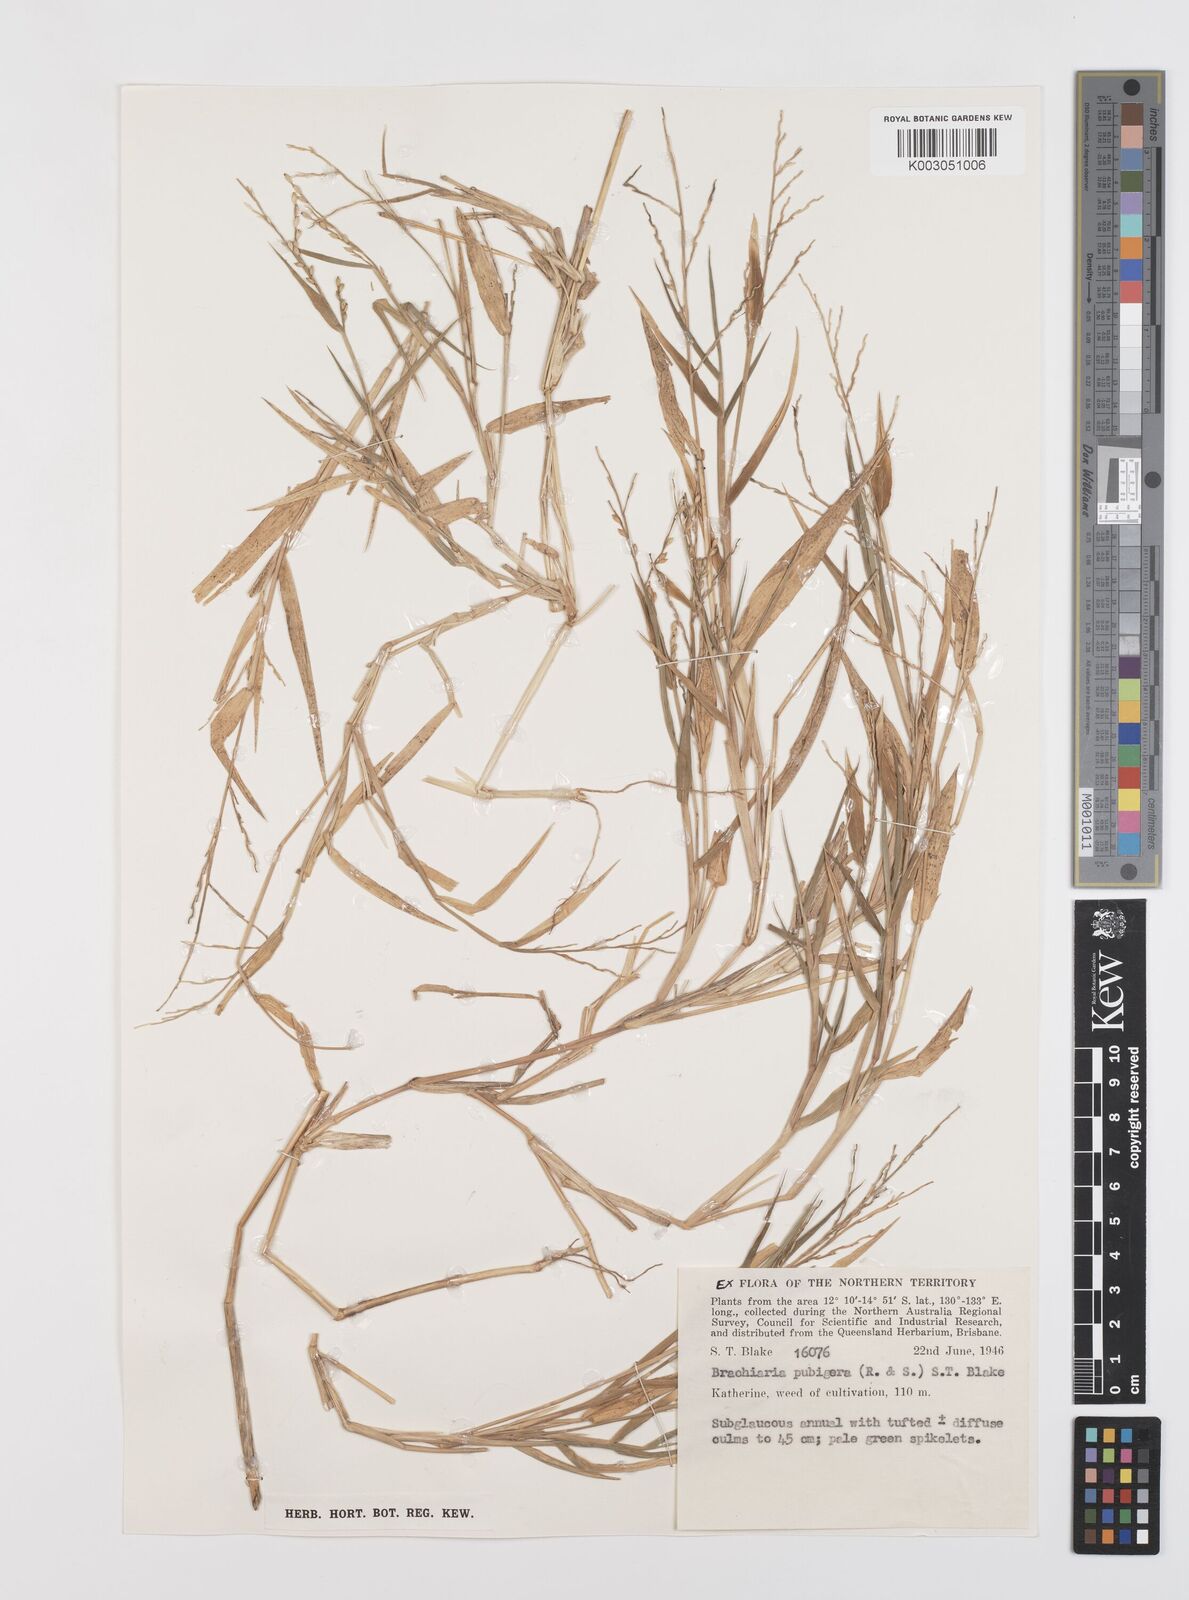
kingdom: Plantae
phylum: Tracheophyta
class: Liliopsida
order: Poales
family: Poaceae
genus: Urochloa
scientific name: Urochloa pubigera
